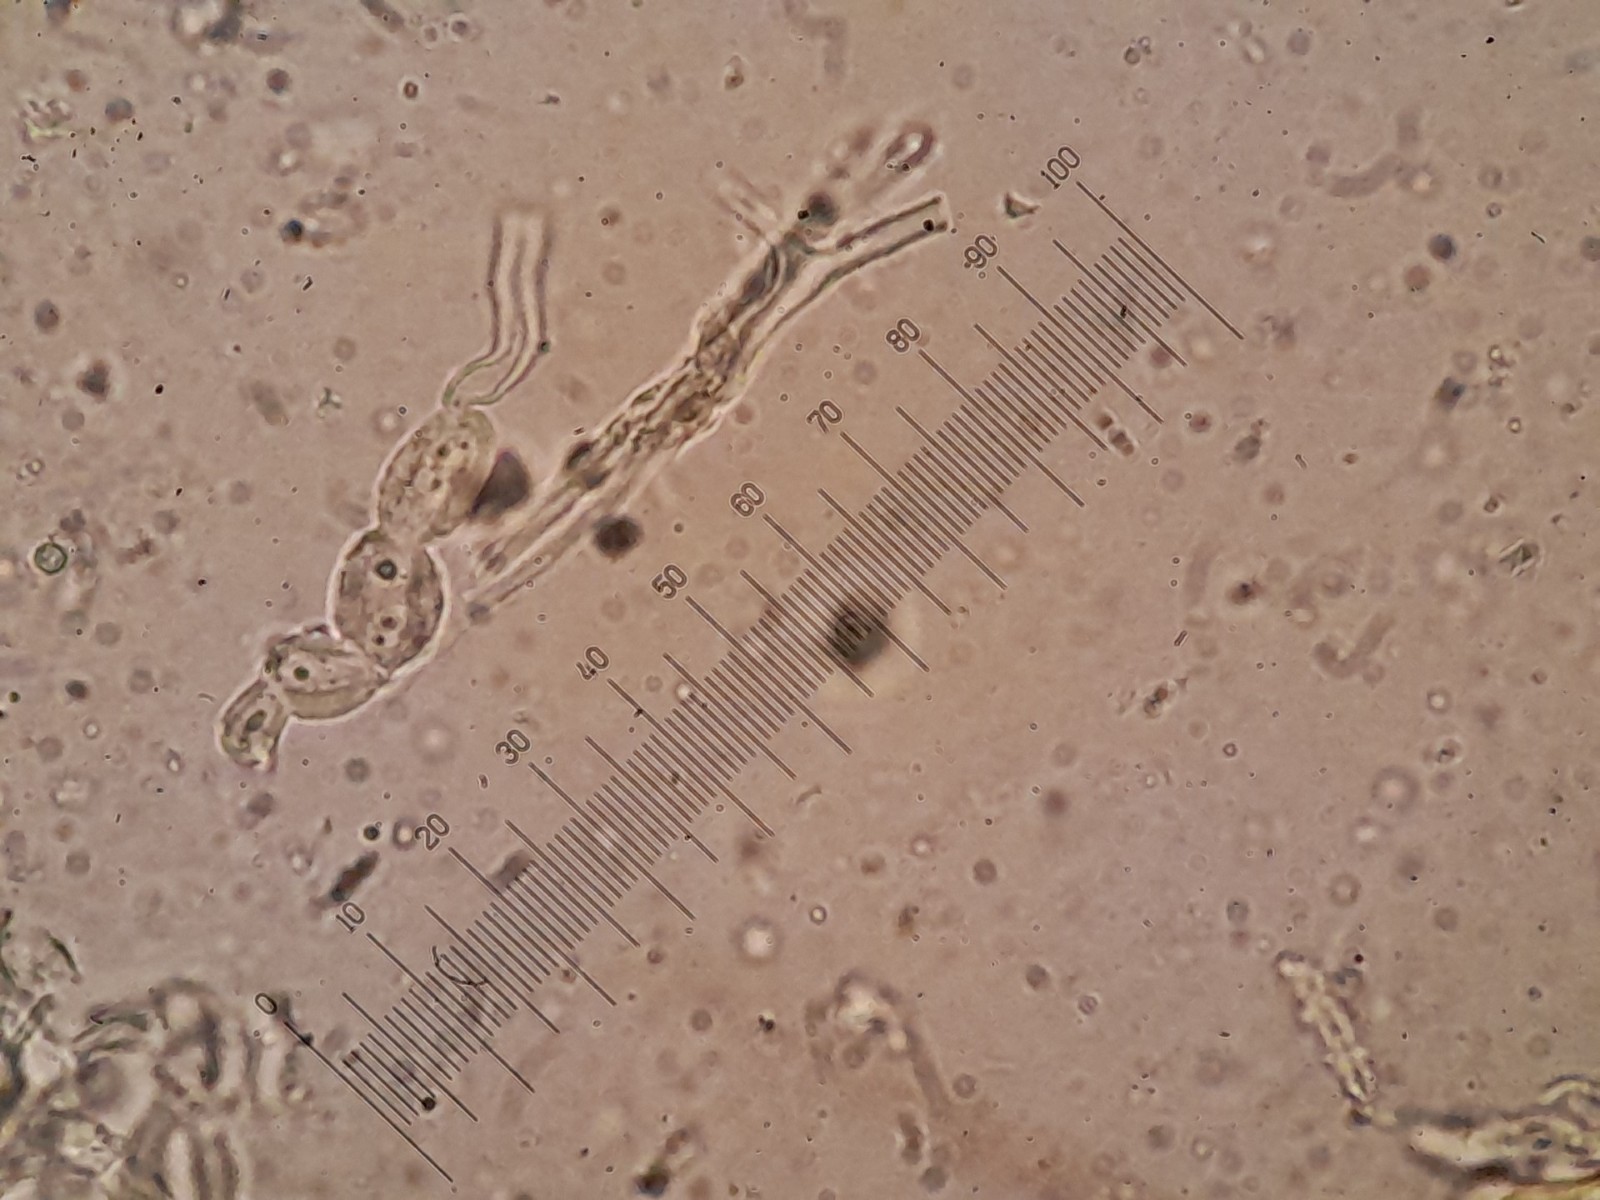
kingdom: Fungi
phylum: Basidiomycota
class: Pucciniomycetes
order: Platygloeales
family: Platygloeaceae
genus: Platygloea
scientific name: Platygloea
